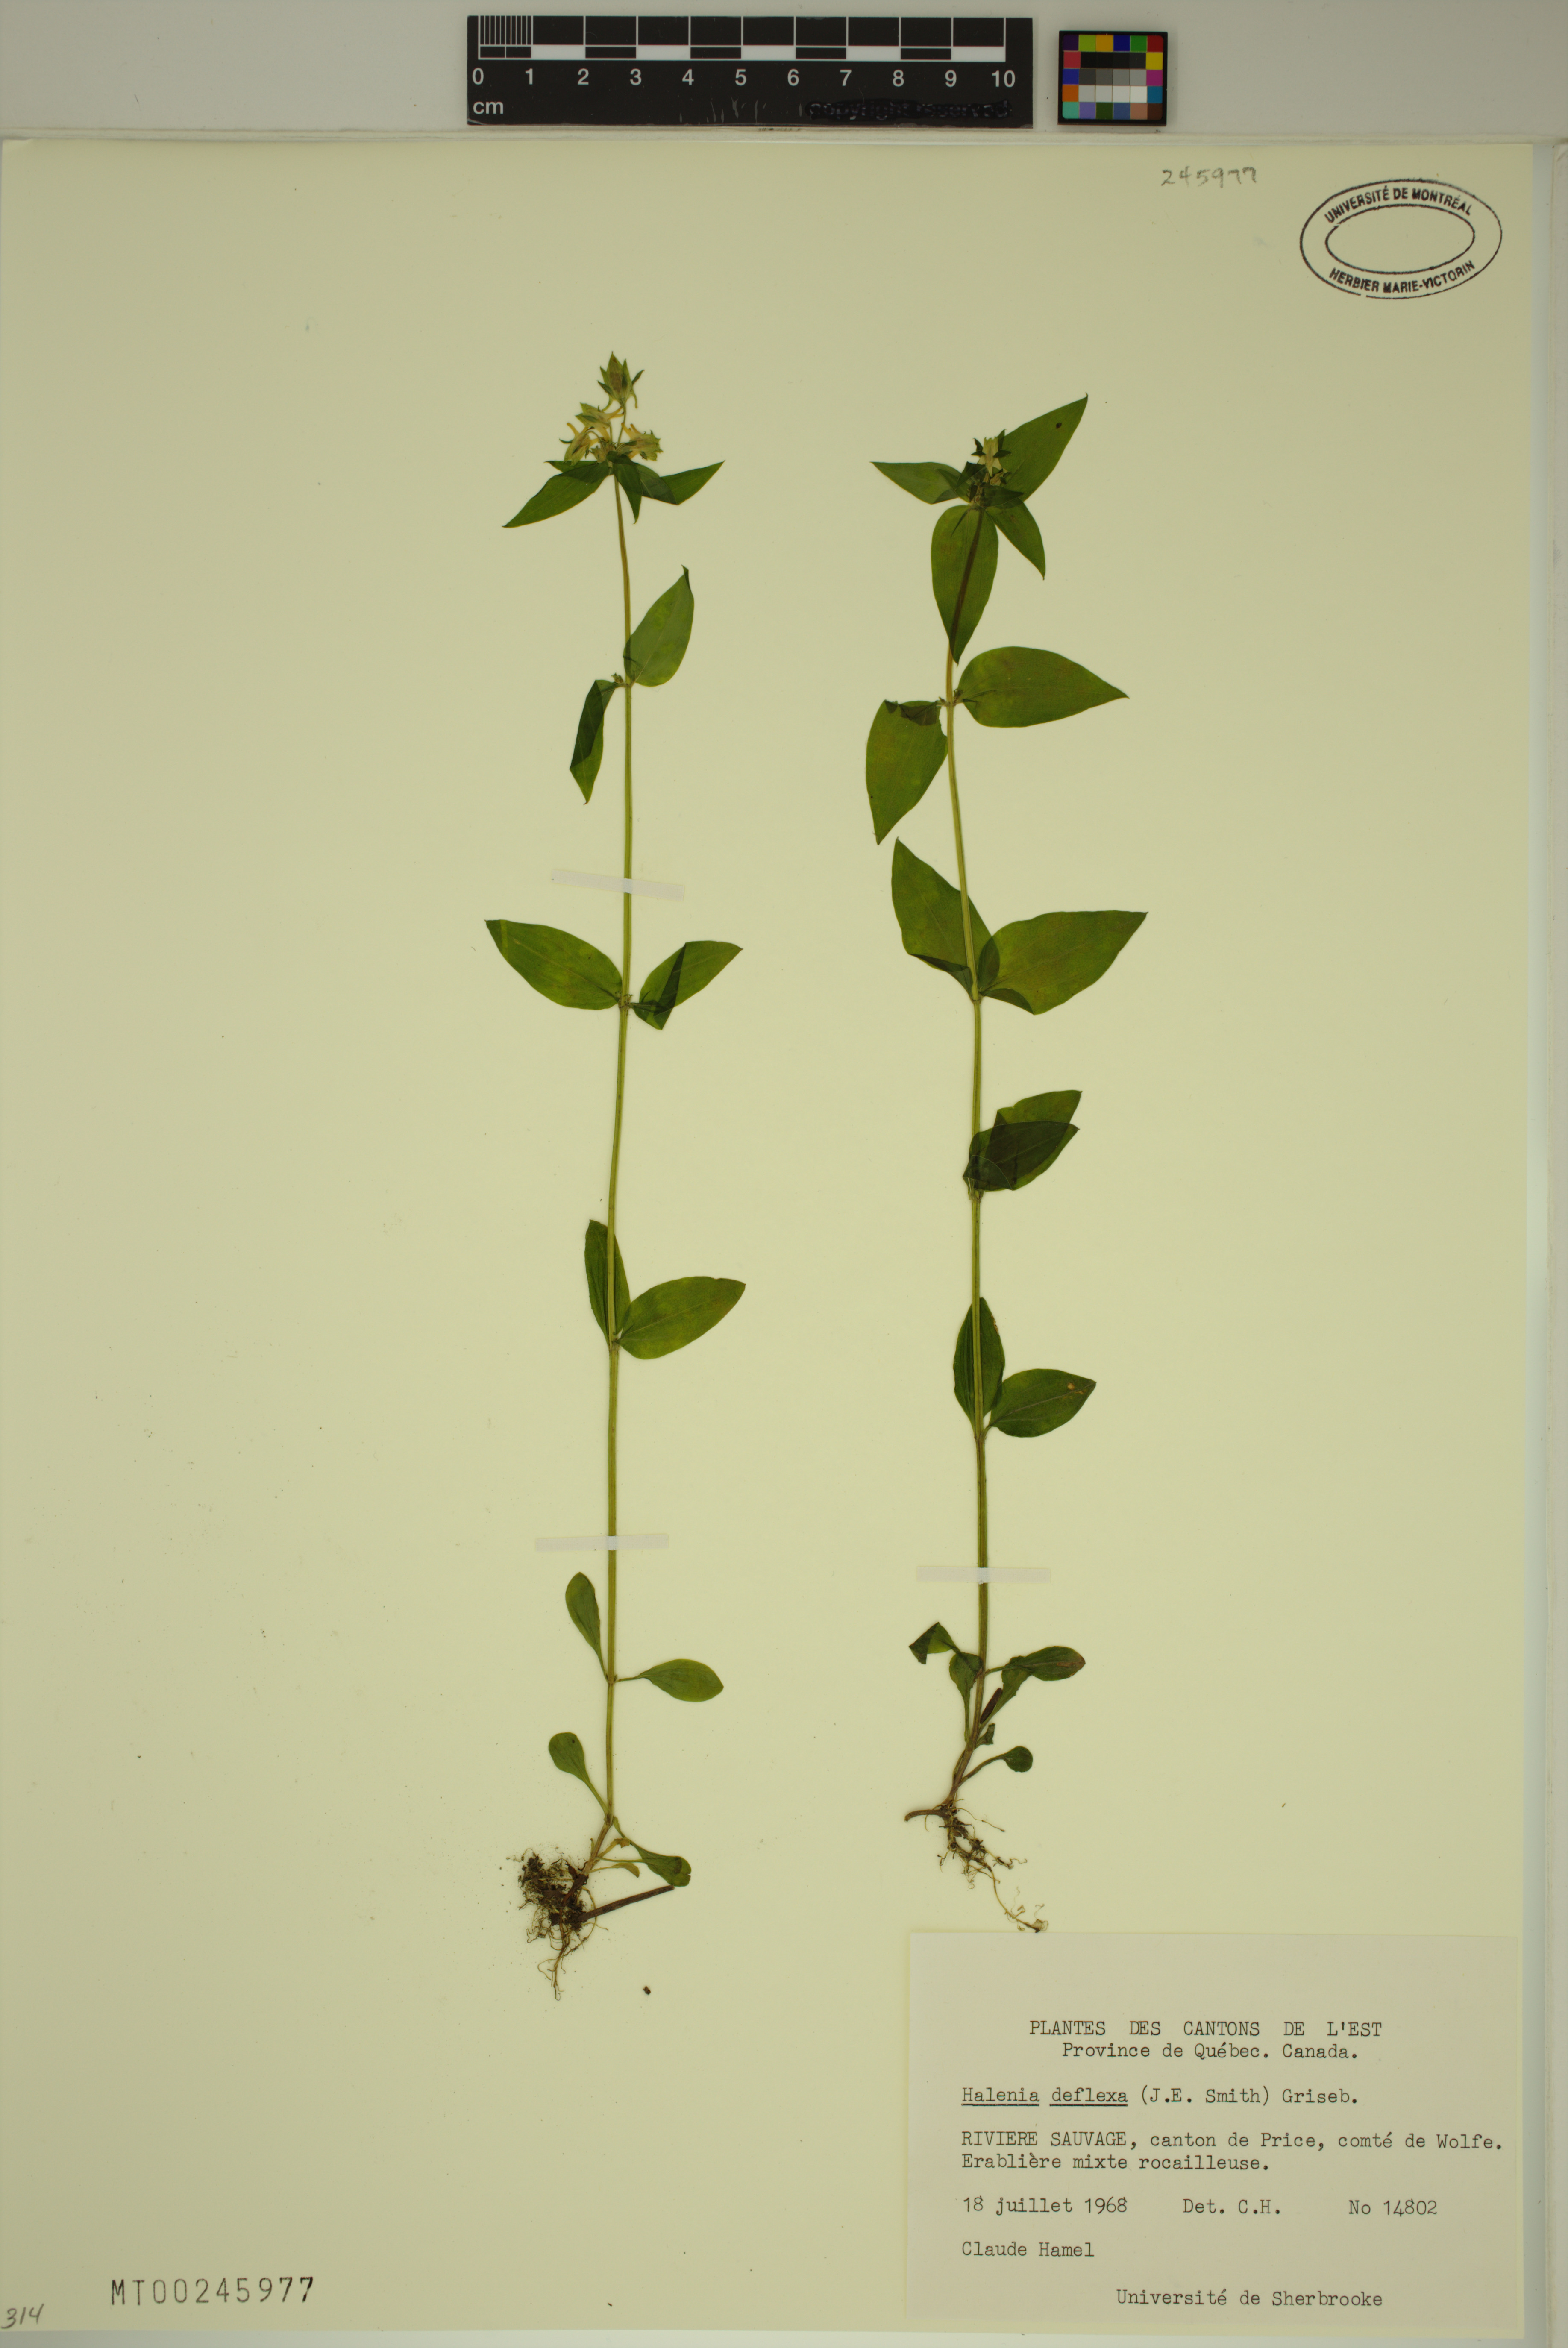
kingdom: Plantae
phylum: Tracheophyta
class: Magnoliopsida
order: Gentianales
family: Gentianaceae
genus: Halenia
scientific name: Halenia deflexa
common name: American spurred gentian
